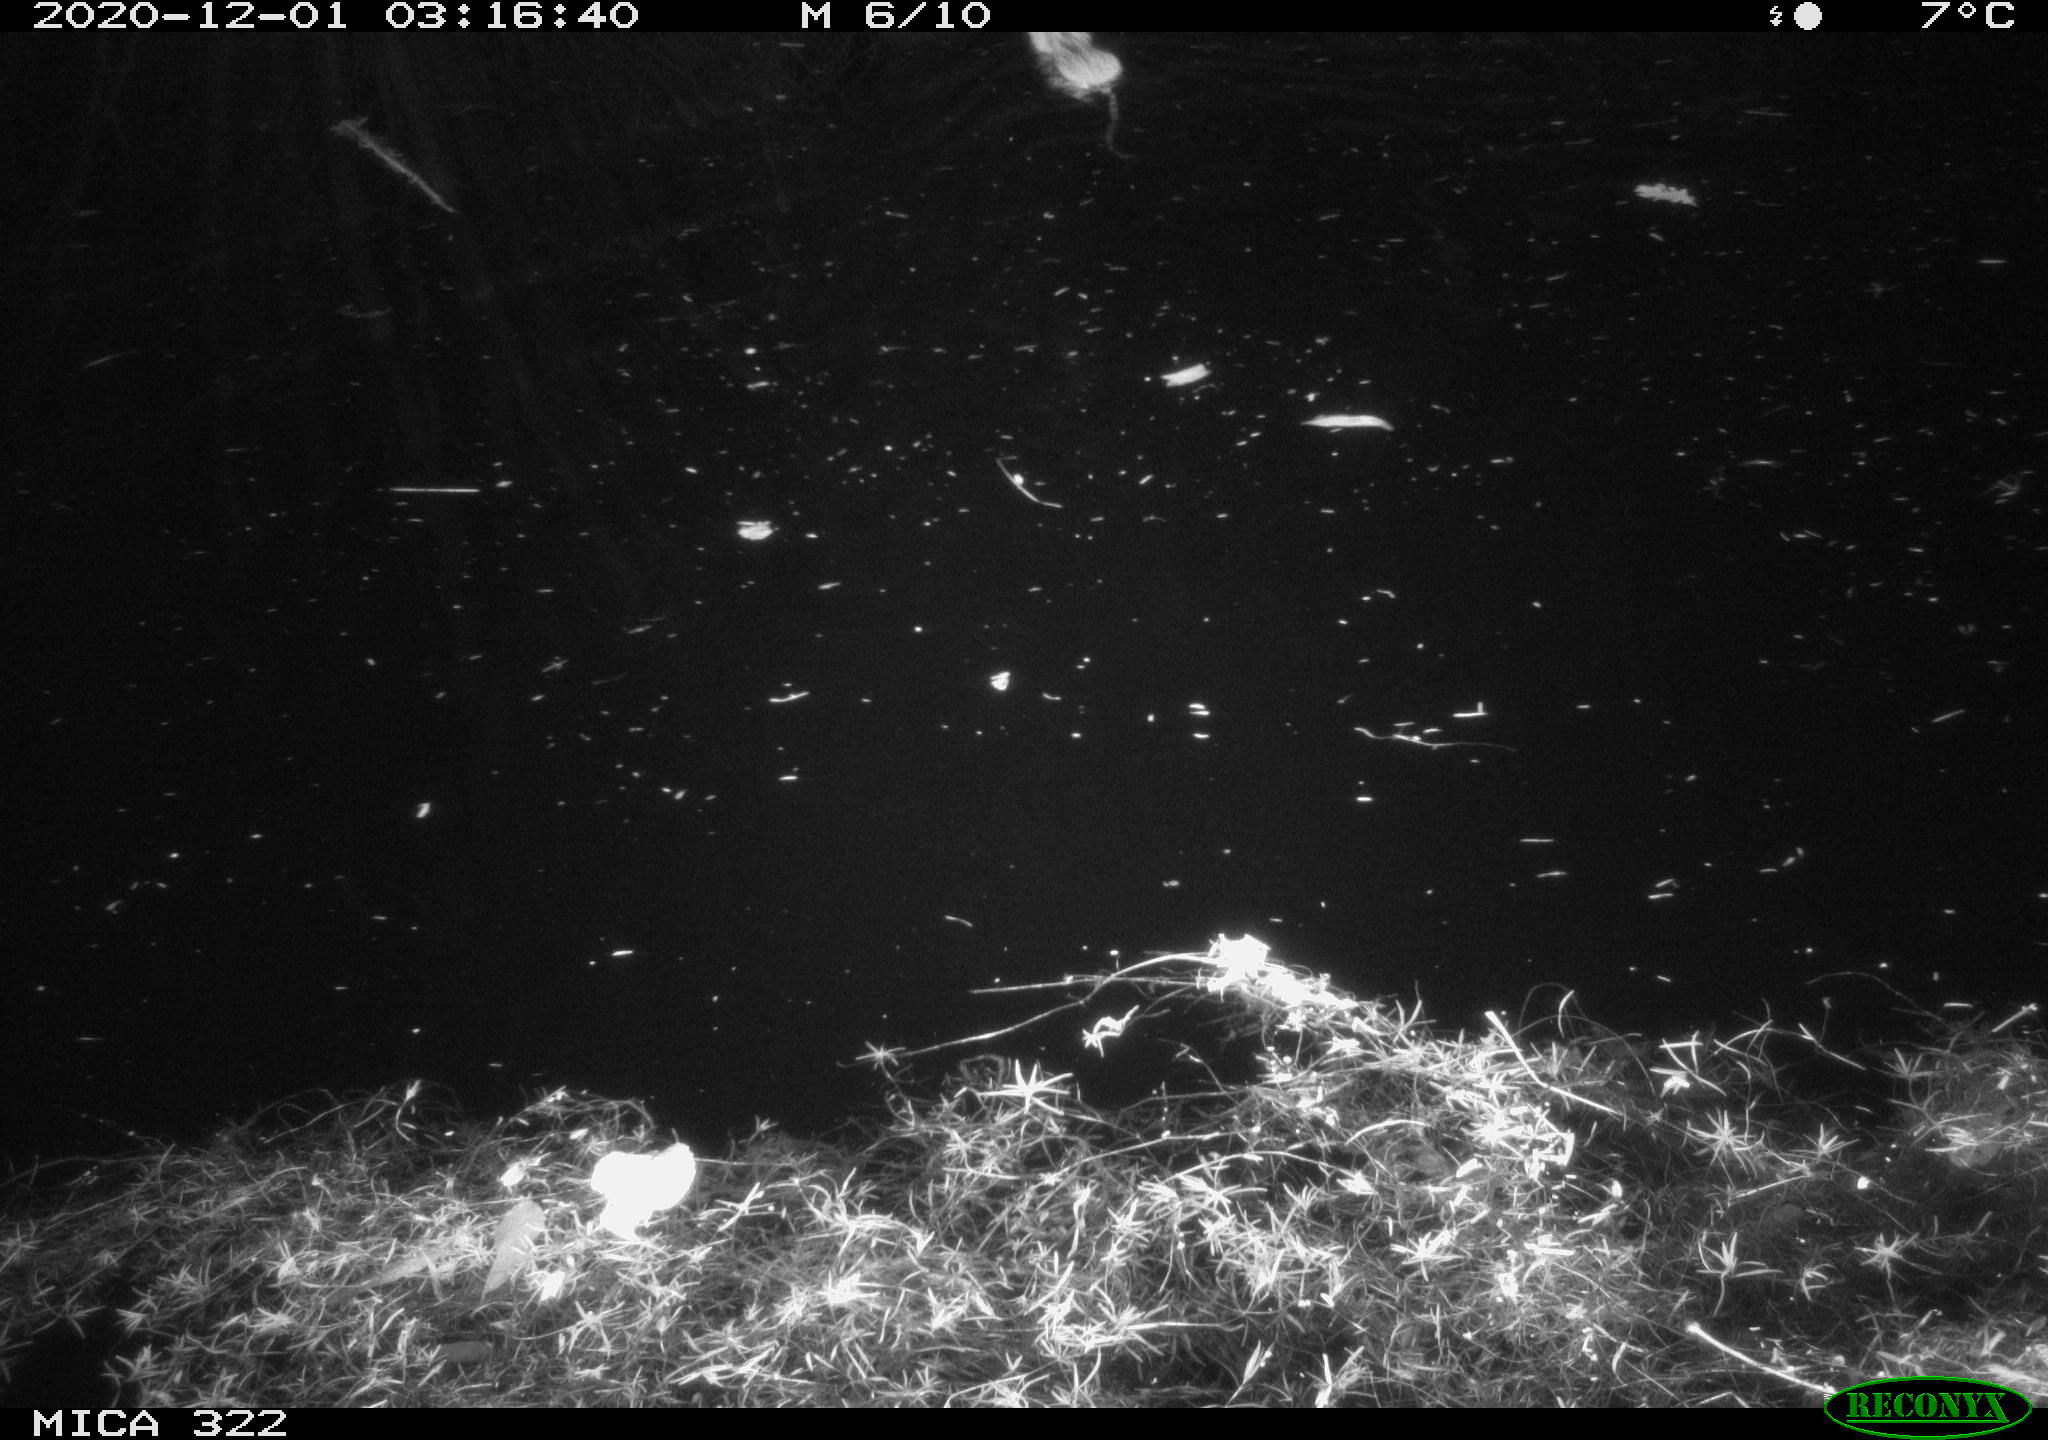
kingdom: Animalia
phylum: Chordata
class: Mammalia
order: Rodentia
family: Muridae
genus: Rattus
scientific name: Rattus norvegicus
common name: Brown rat
